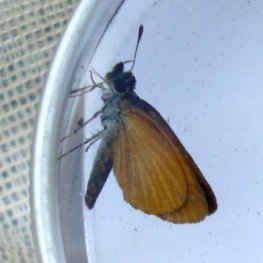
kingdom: Animalia
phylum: Arthropoda
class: Insecta
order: Lepidoptera
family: Hesperiidae
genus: Ancyloxypha
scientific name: Ancyloxypha numitor
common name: Least Skipper
